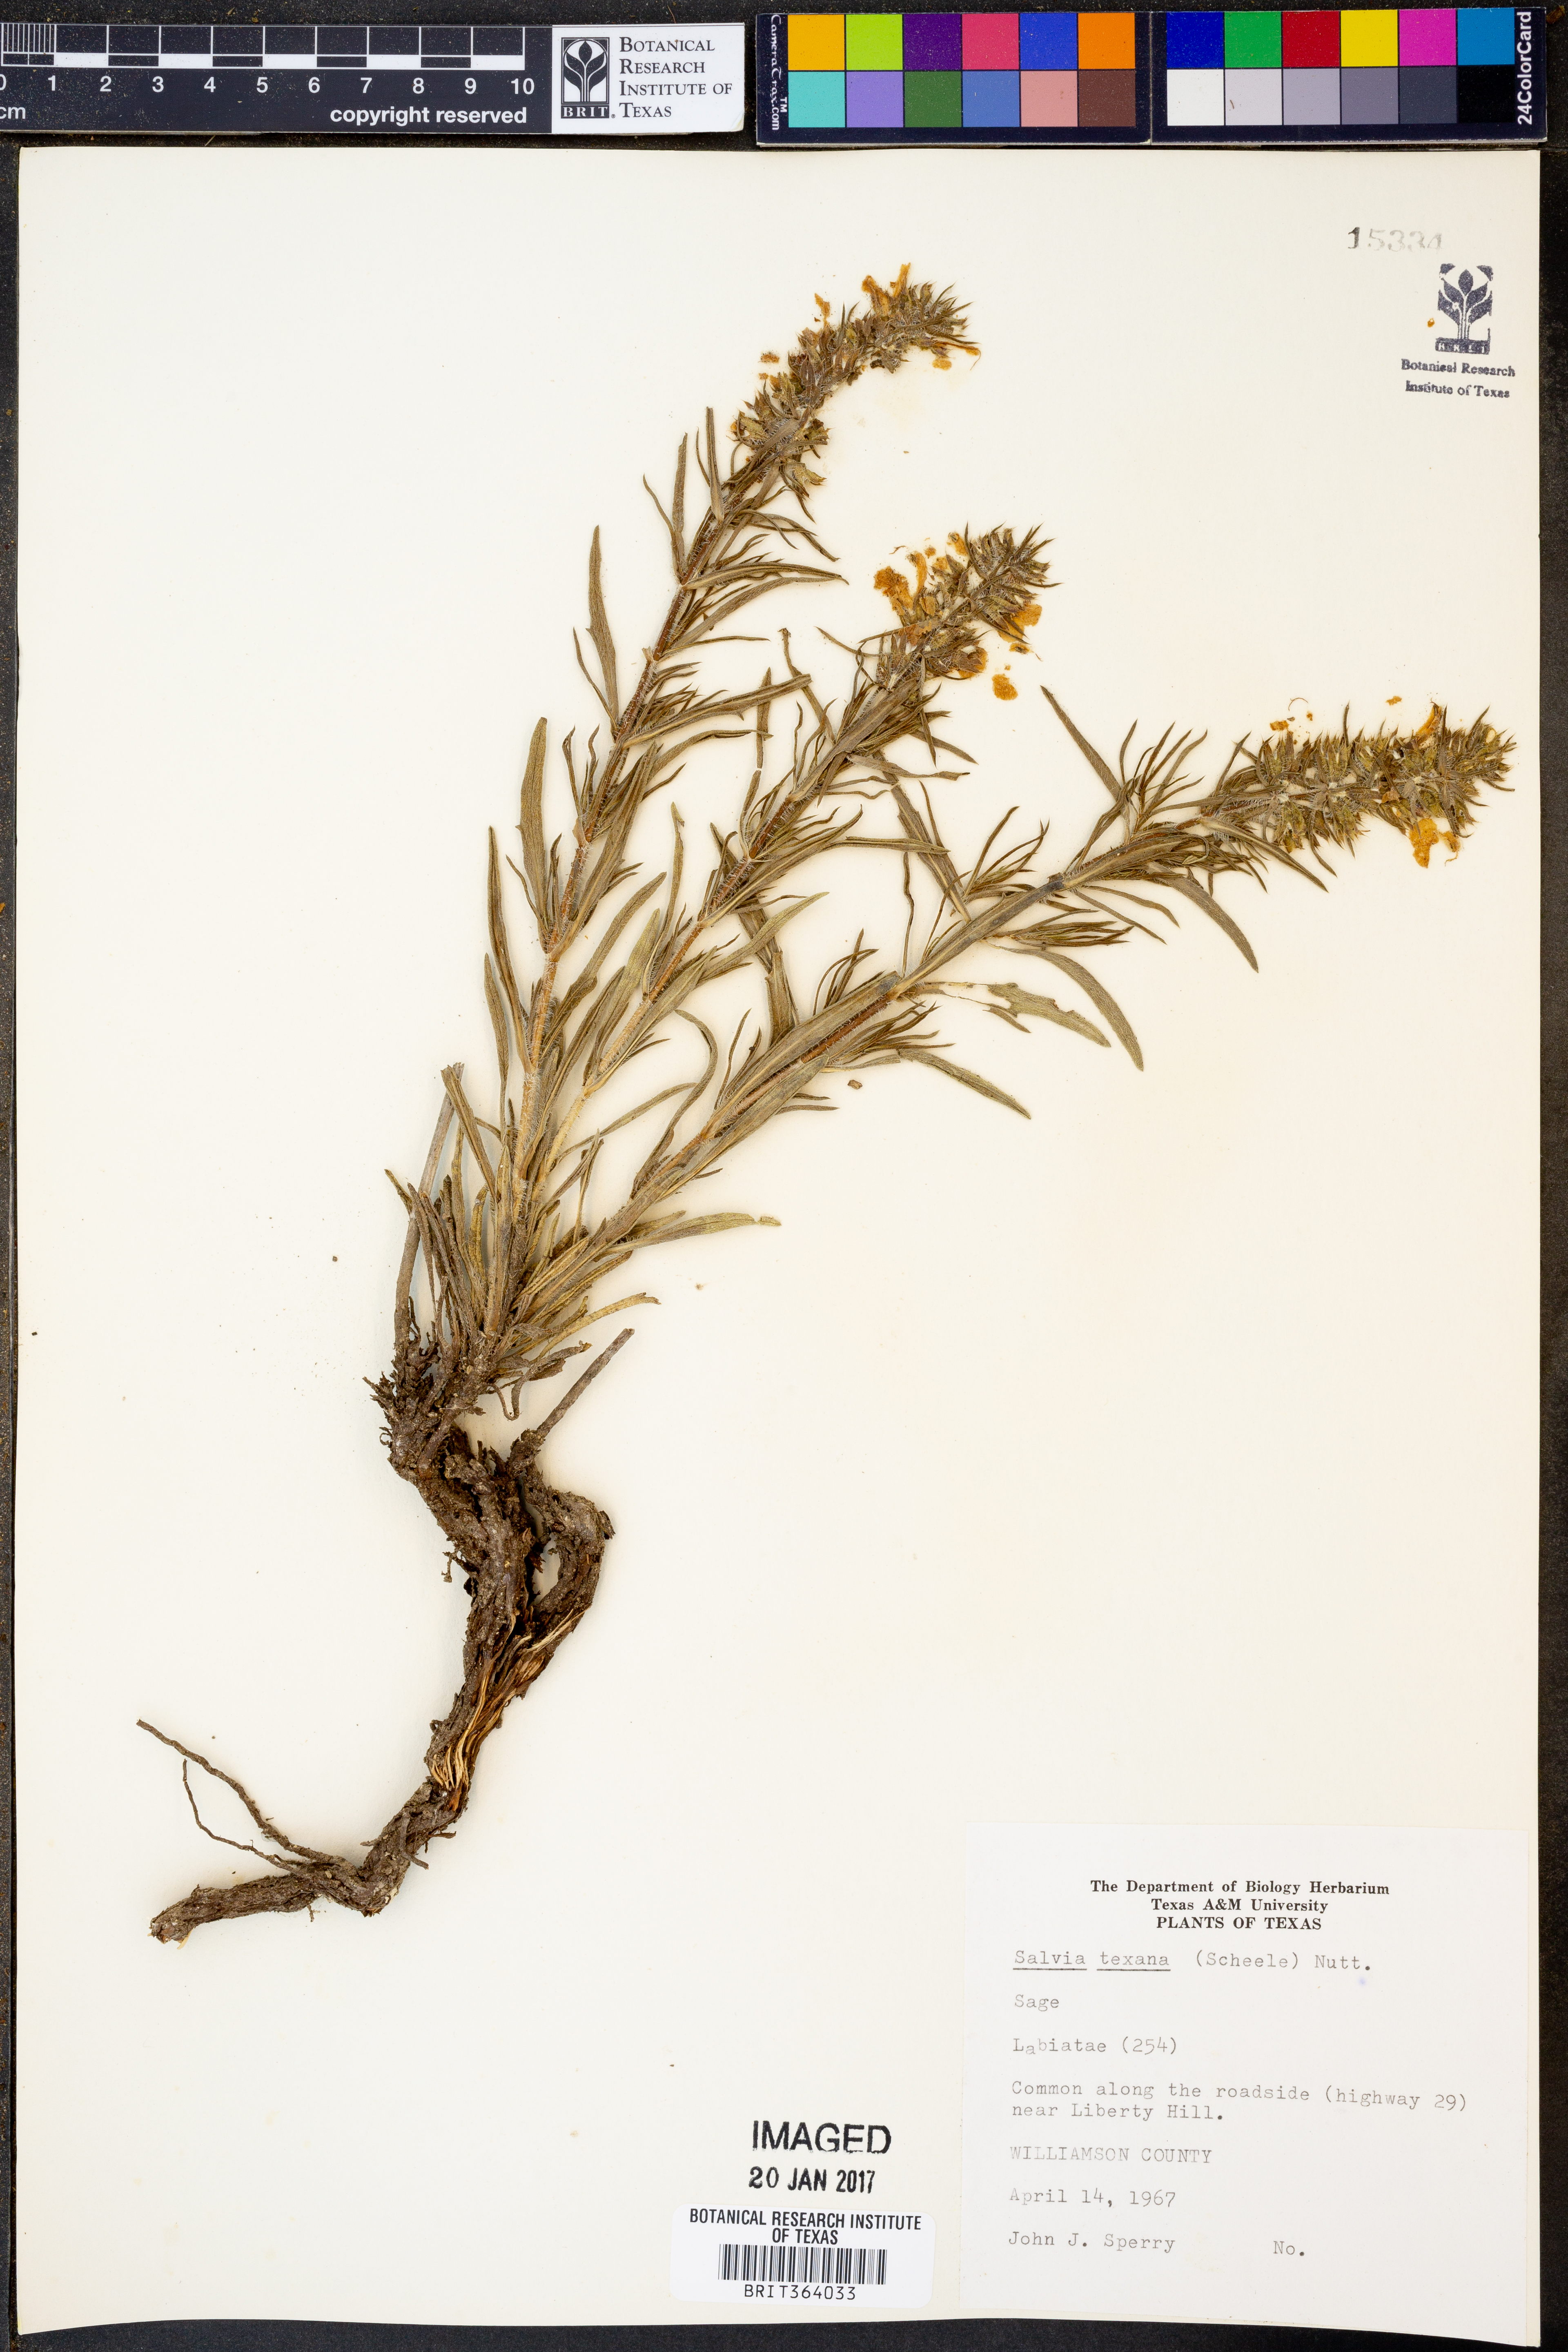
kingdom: Plantae
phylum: Tracheophyta
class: Magnoliopsida
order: Lamiales
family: Lamiaceae
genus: Salvia
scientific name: Salvia texana
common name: Texas sage
